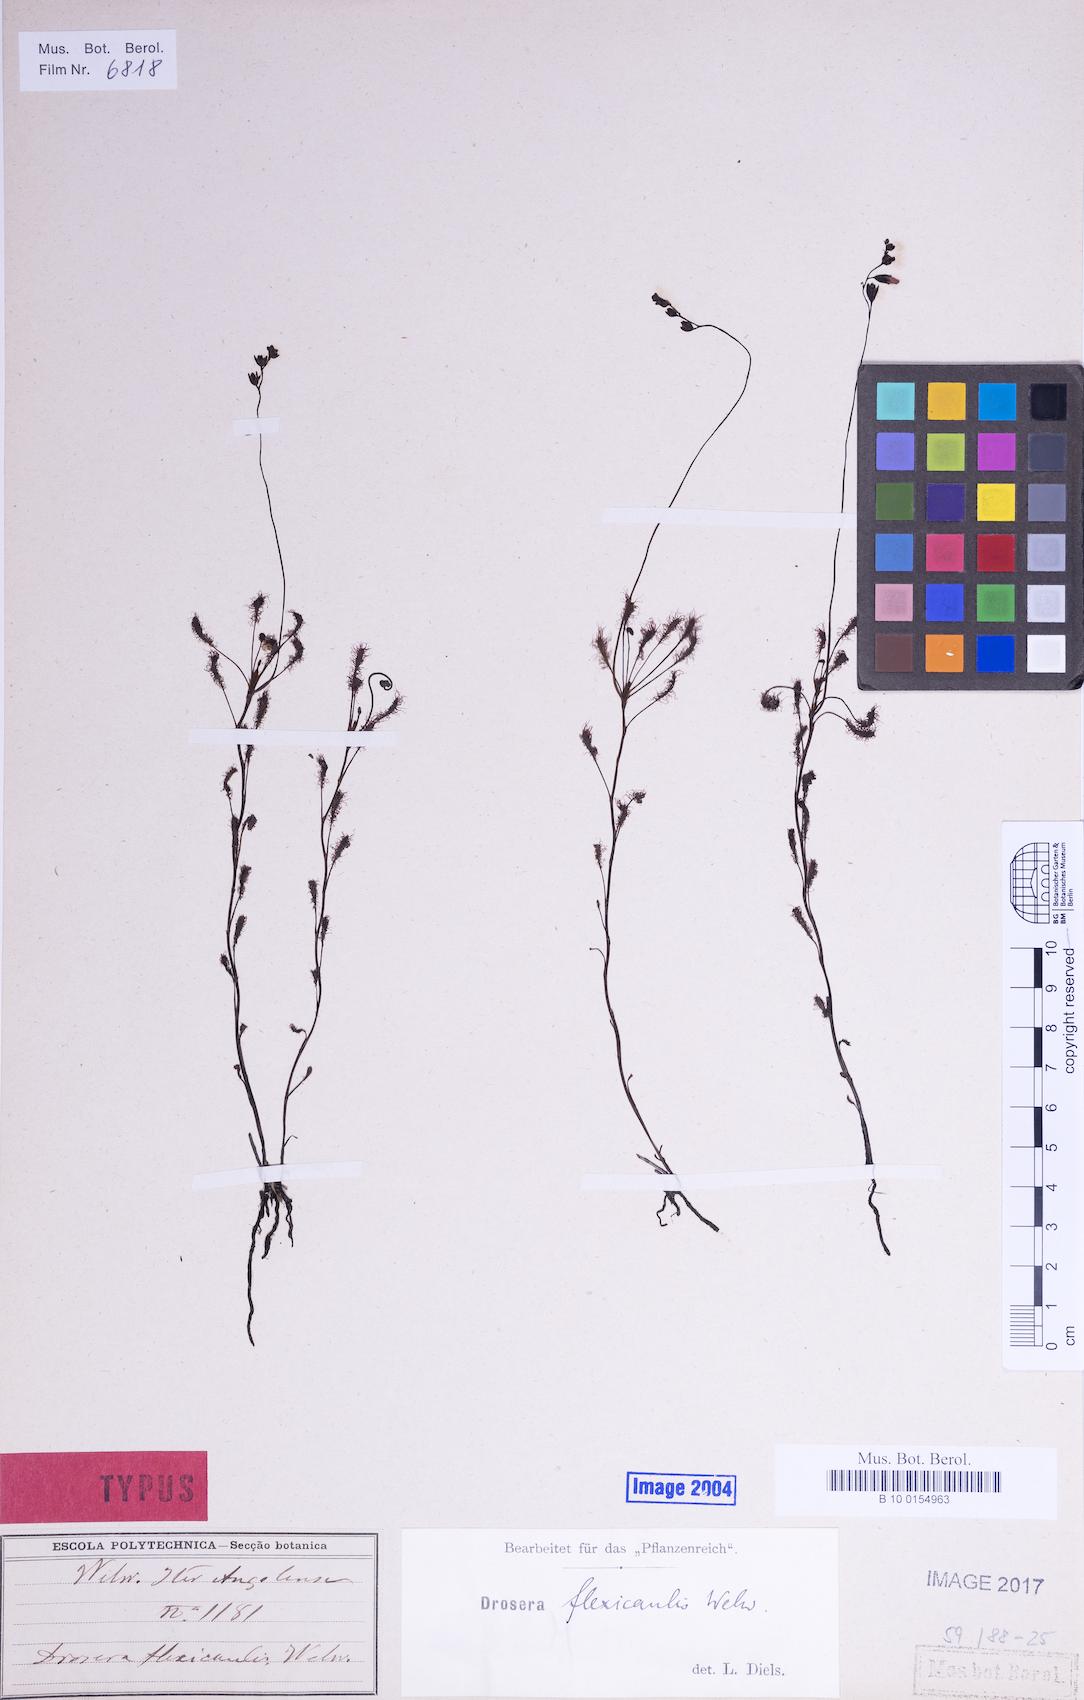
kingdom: Plantae
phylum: Tracheophyta
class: Magnoliopsida
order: Caryophyllales
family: Droseraceae
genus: Drosera
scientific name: Drosera affinis
